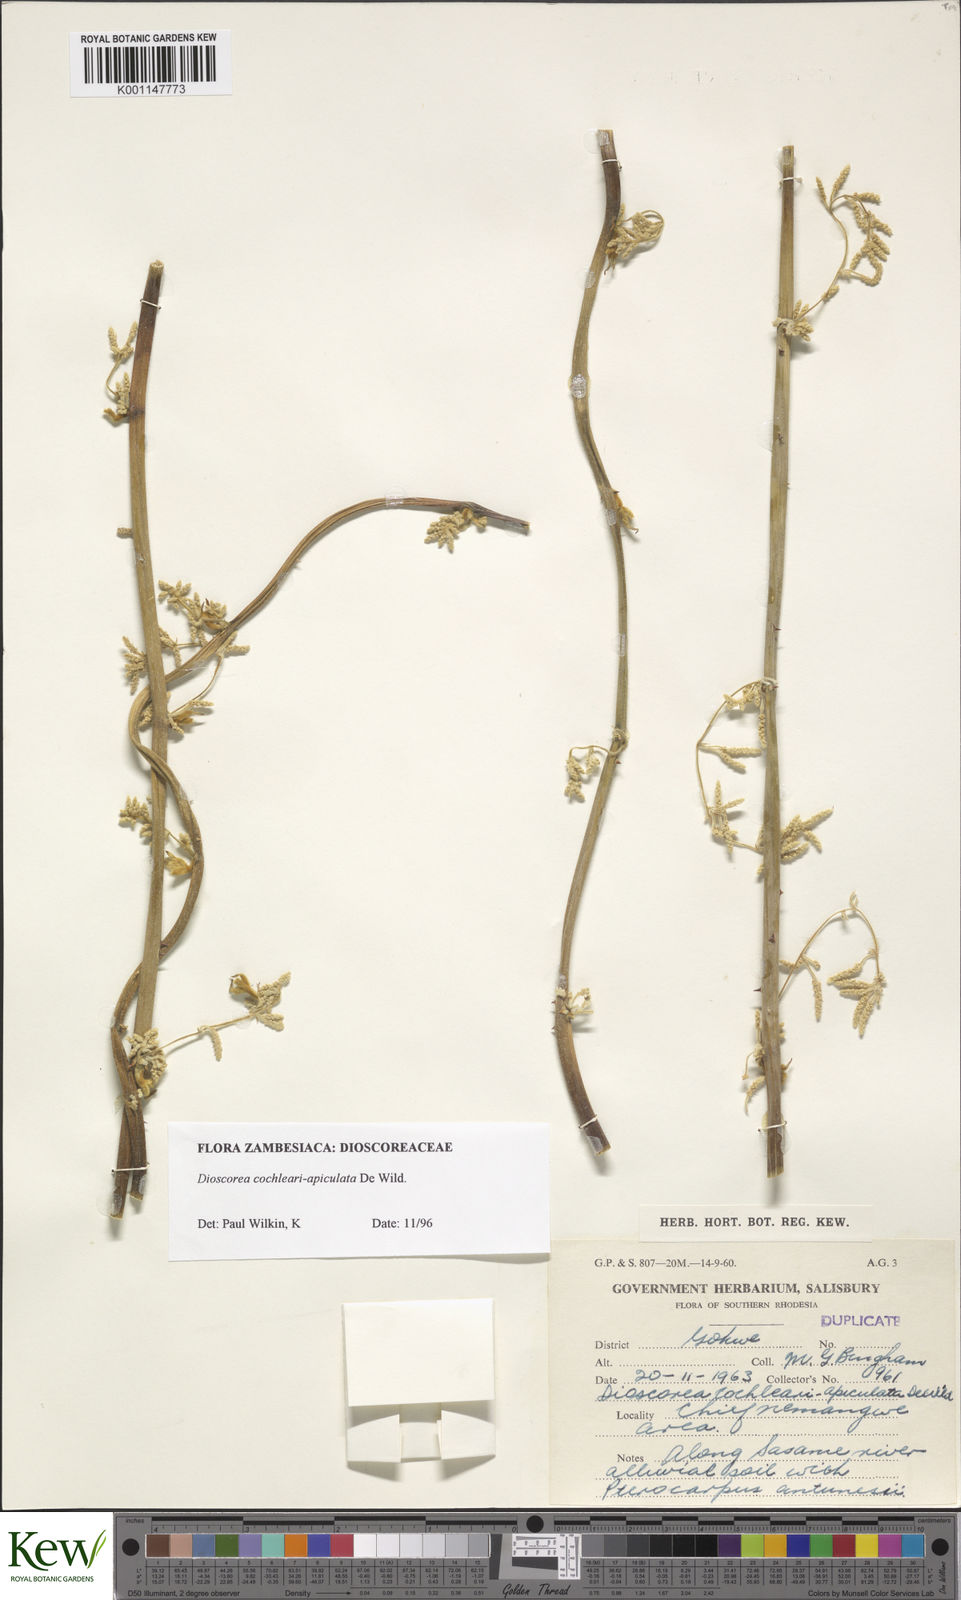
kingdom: Plantae
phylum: Tracheophyta
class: Liliopsida
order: Dioscoreales
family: Dioscoreaceae
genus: Dioscorea
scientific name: Dioscorea cochleariapiculata
